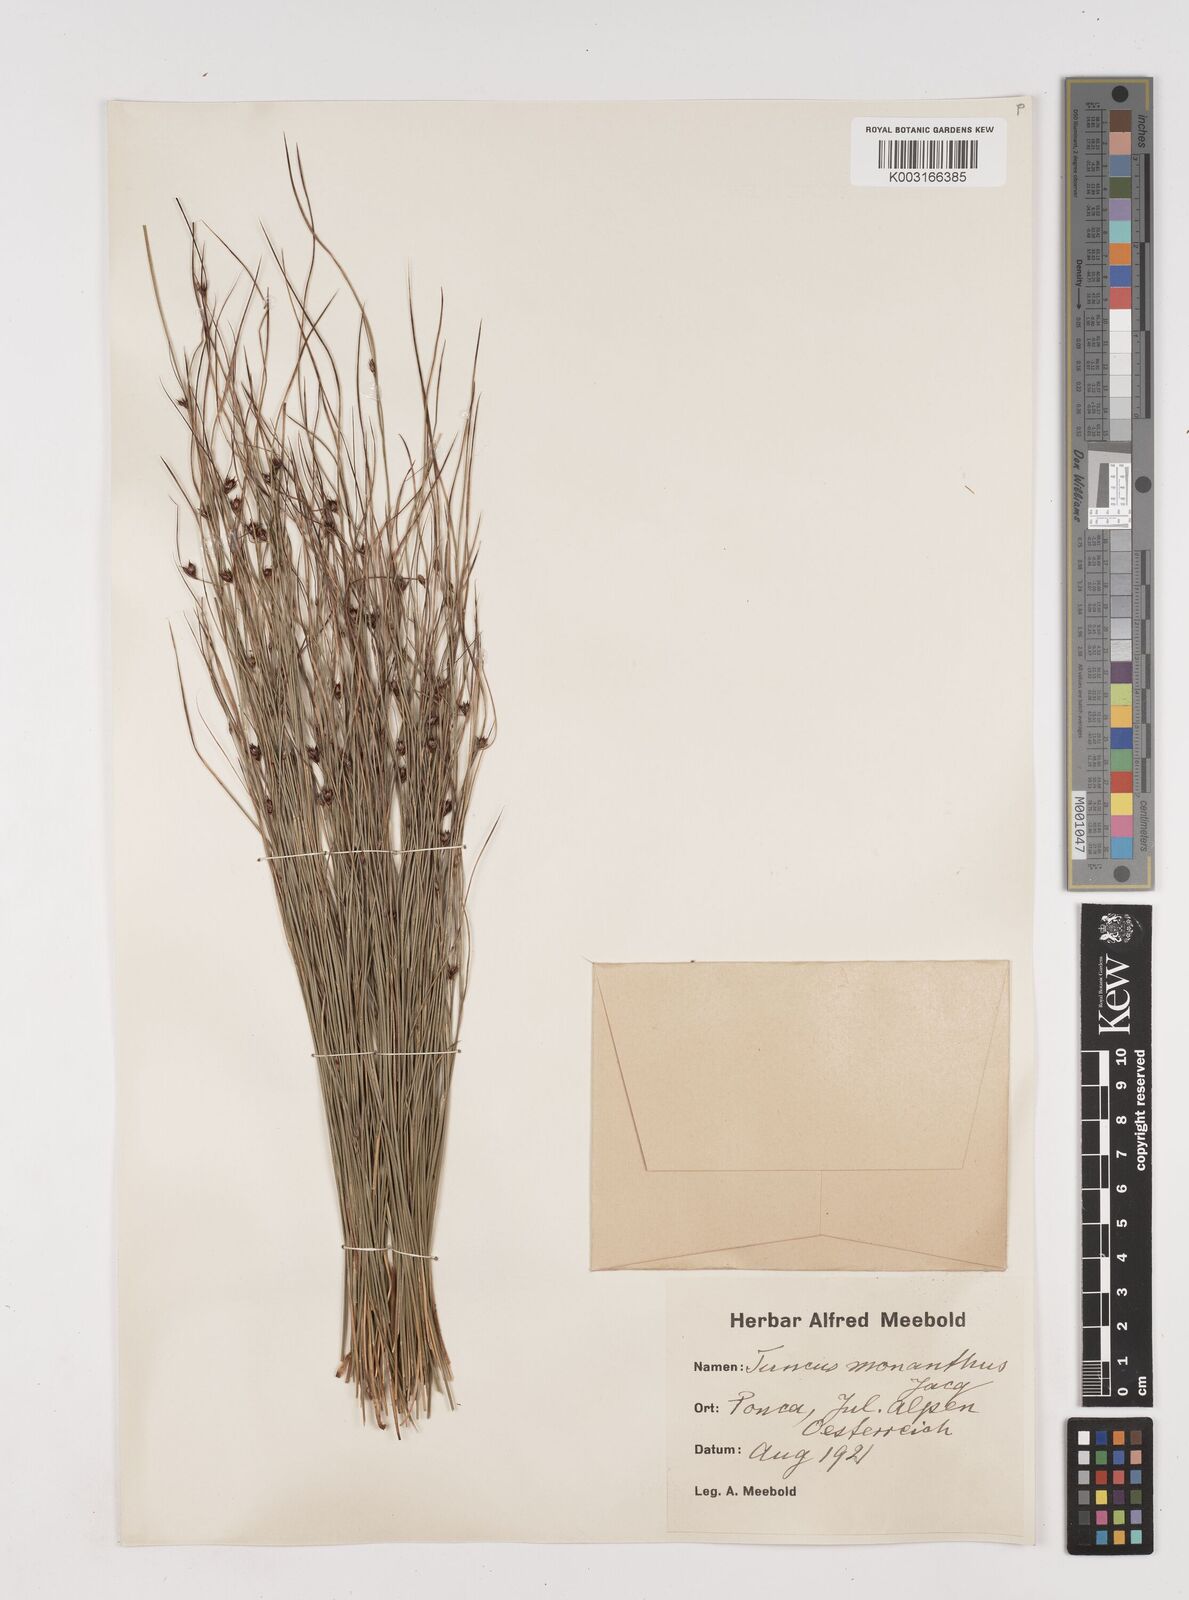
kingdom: Plantae
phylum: Tracheophyta
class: Liliopsida
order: Poales
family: Juncaceae
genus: Oreojuncus
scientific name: Oreojuncus trifidus
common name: Highland rush
